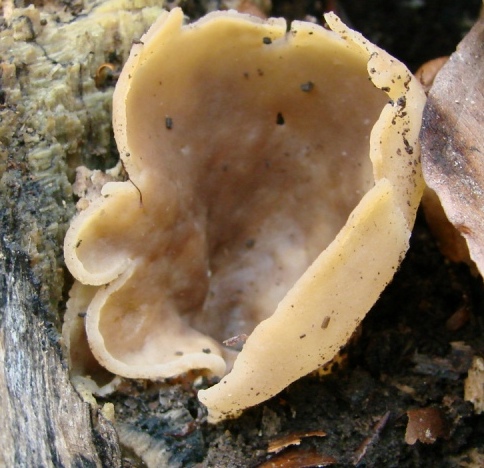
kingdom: Fungi
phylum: Ascomycota
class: Pezizomycetes
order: Pezizales
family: Pezizaceae
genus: Peziza
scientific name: Peziza varia
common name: Ved-bægersvamp
